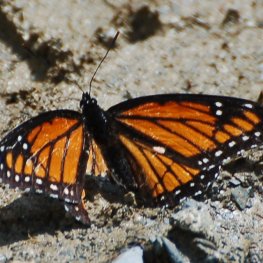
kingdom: Animalia
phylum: Arthropoda
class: Insecta
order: Lepidoptera
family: Nymphalidae
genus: Limenitis
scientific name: Limenitis archippus
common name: Viceroy
